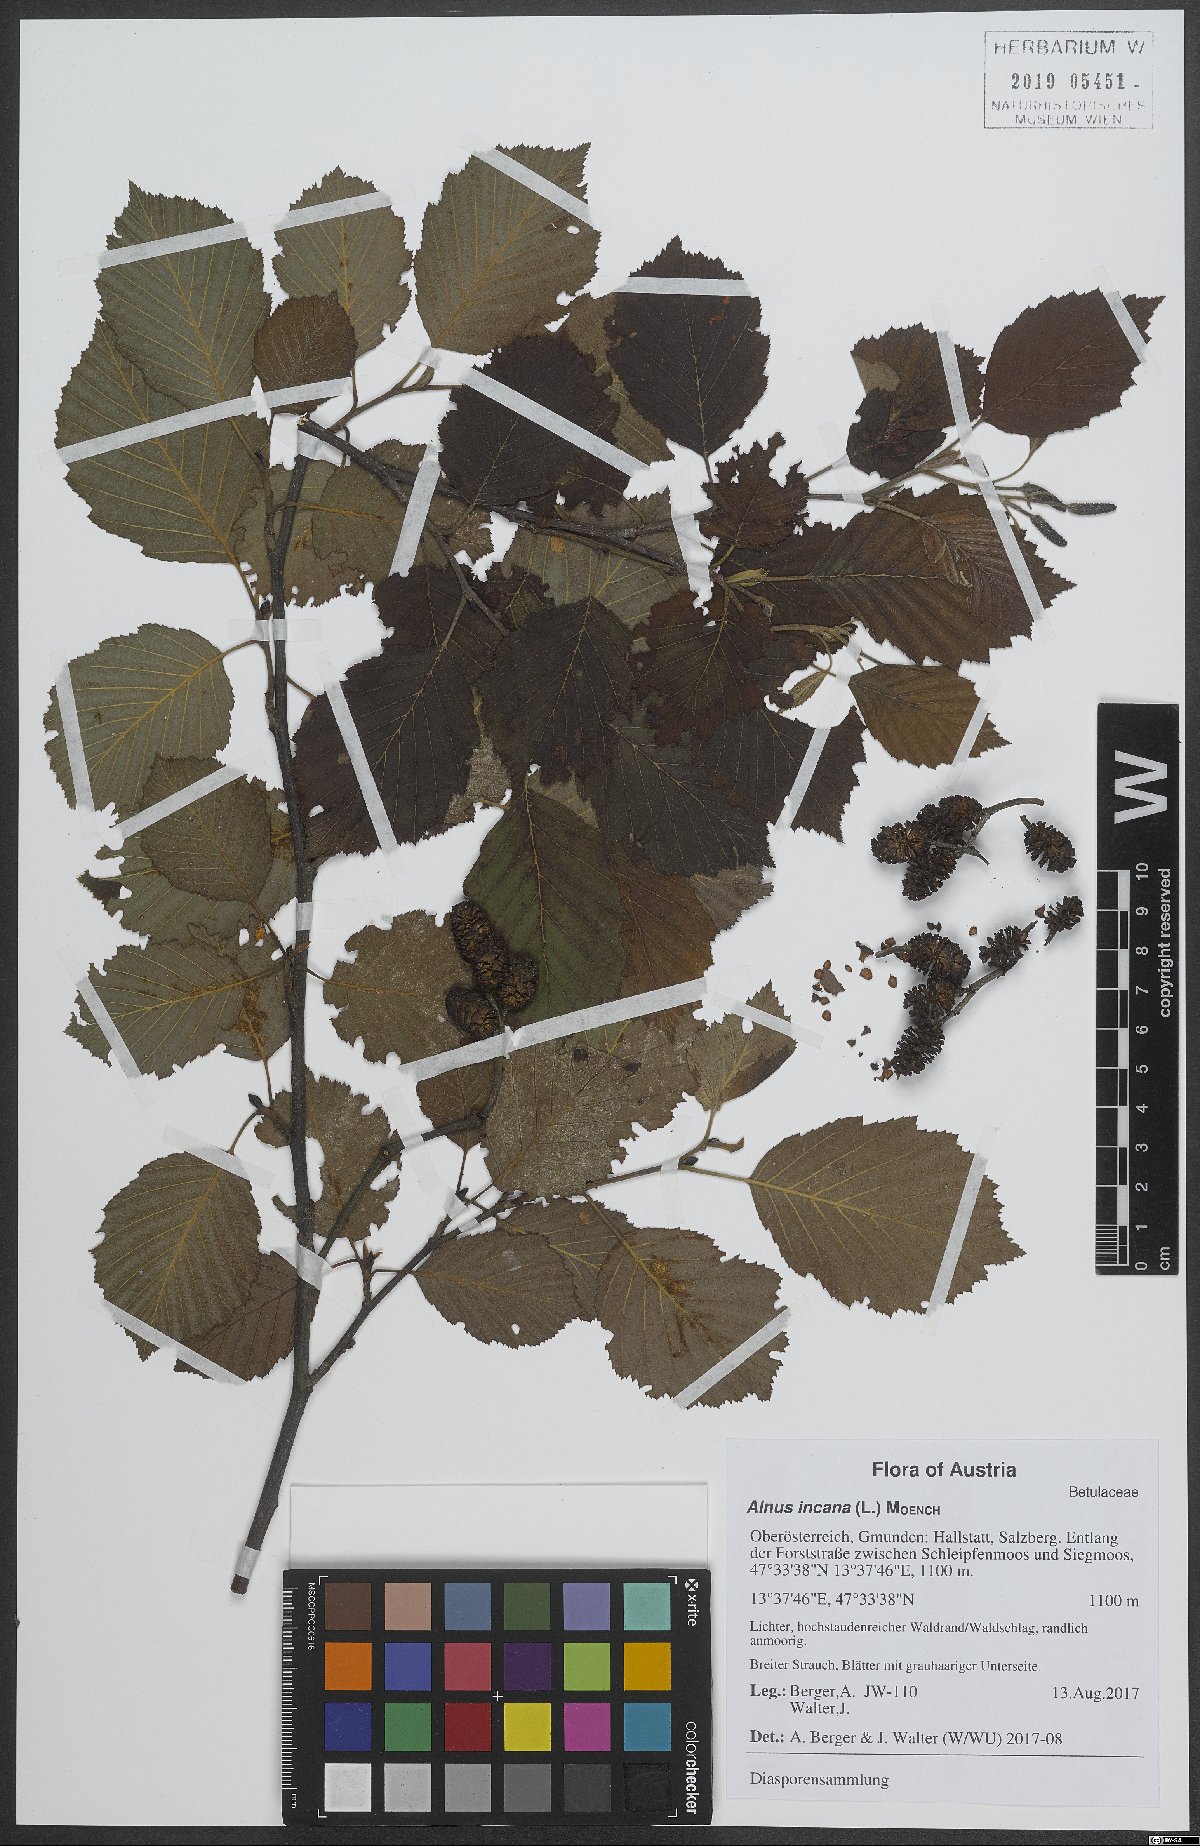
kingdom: Plantae
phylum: Tracheophyta
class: Magnoliopsida
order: Fagales
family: Betulaceae
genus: Alnus
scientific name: Alnus incana
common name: Grey alder
